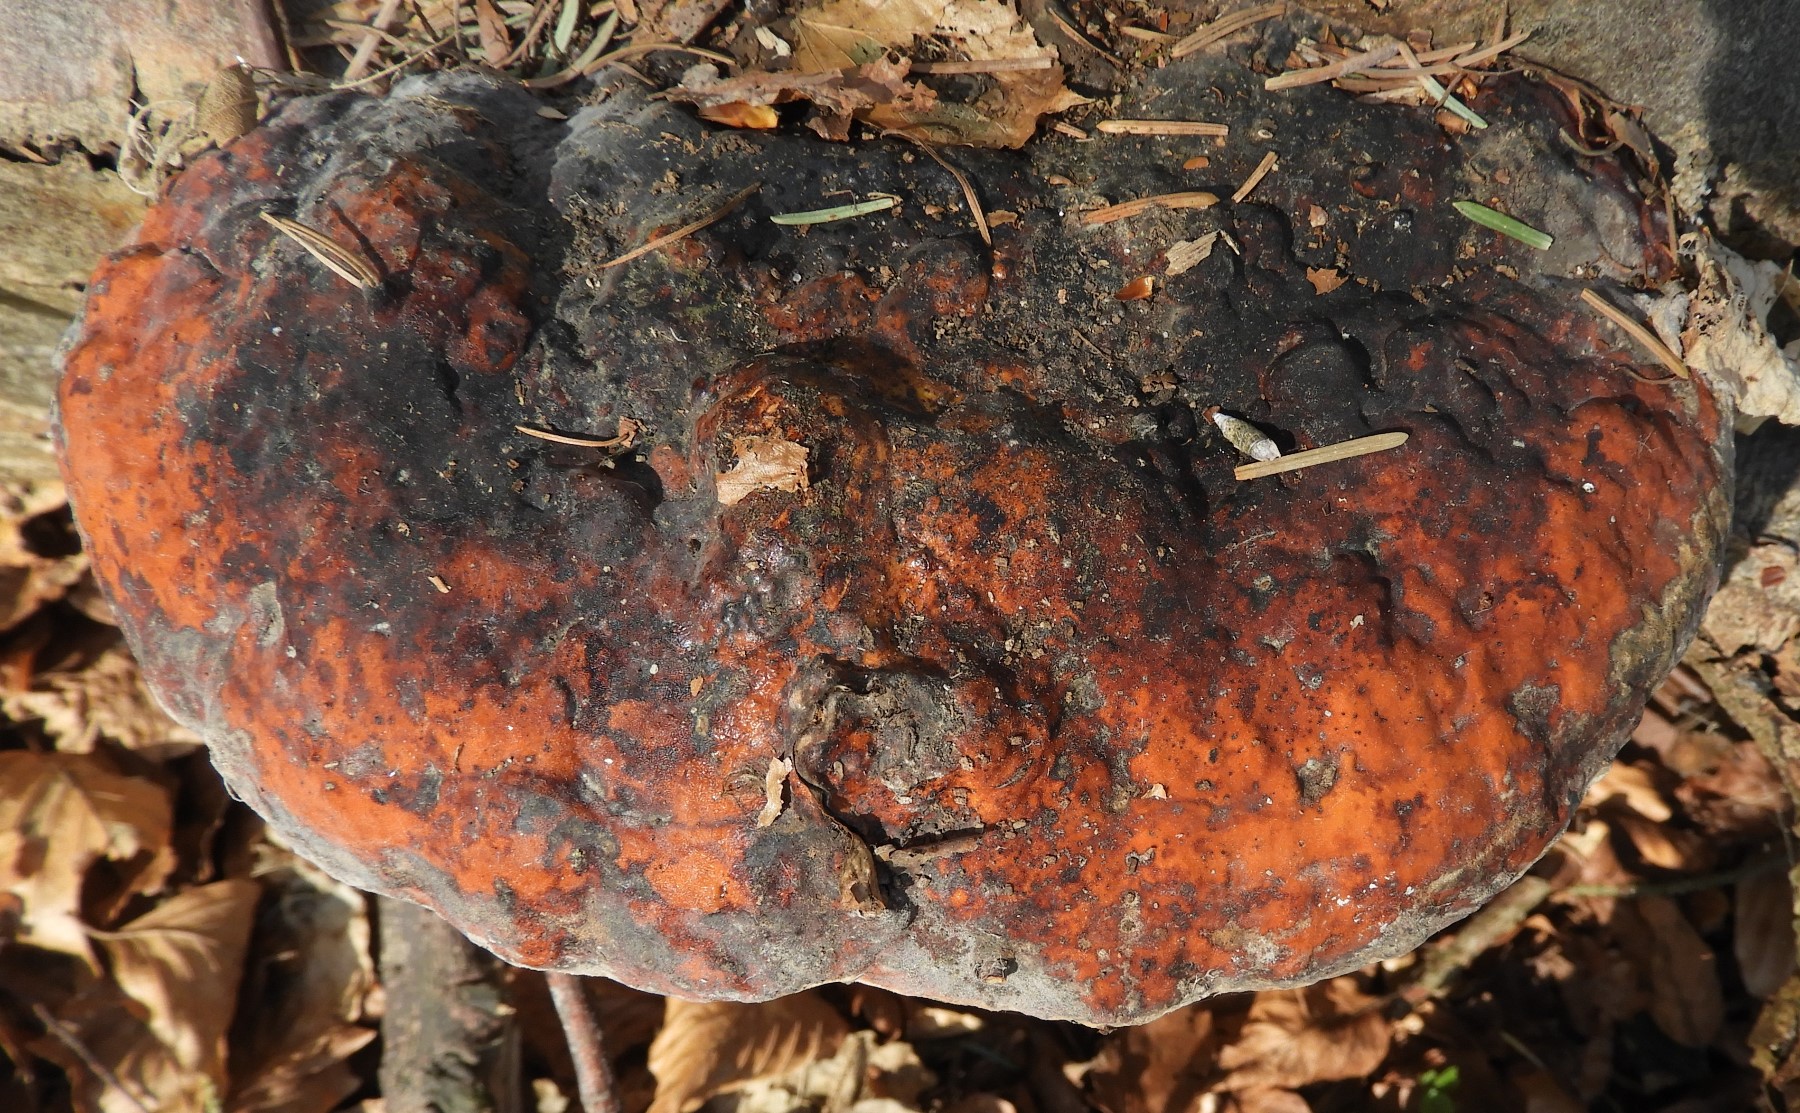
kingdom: Fungi
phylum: Basidiomycota
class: Agaricomycetes
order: Polyporales
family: Fomitopsidaceae
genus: Fomitopsis
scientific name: Fomitopsis pinicola
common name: randbæltet hovporesvamp
